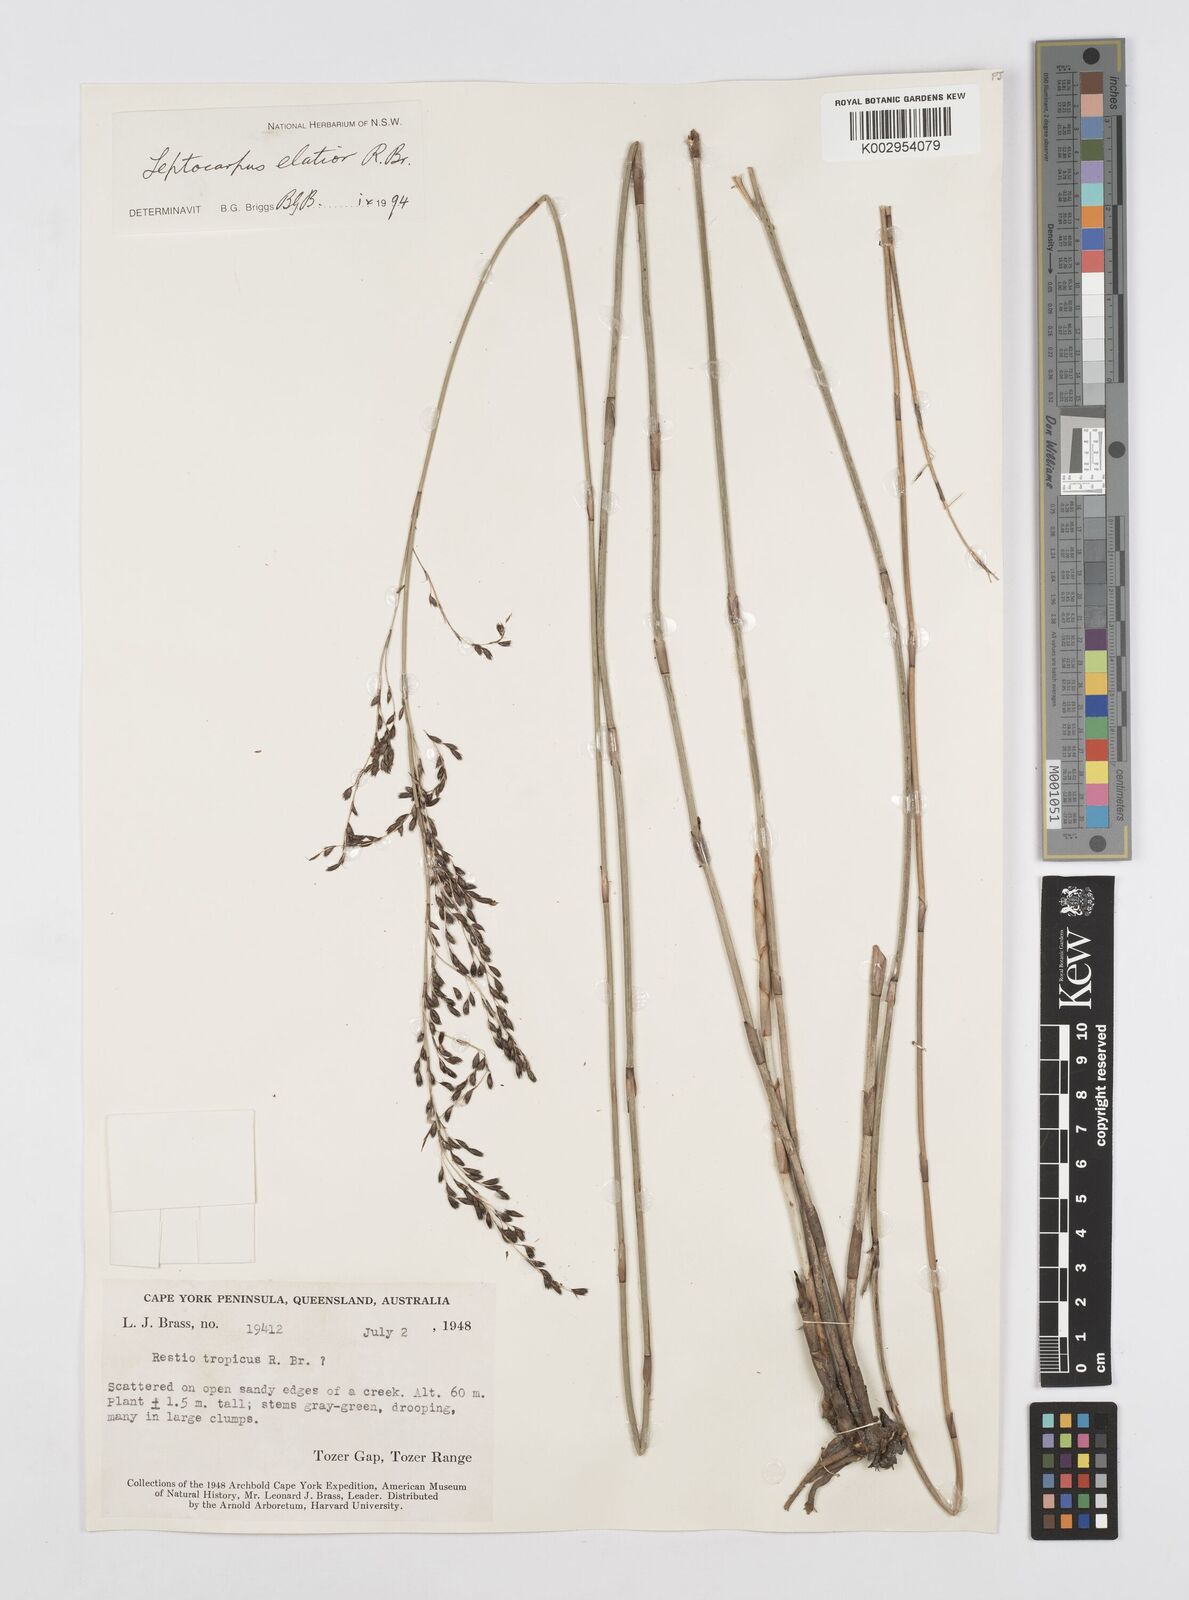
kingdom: Plantae
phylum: Tracheophyta
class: Liliopsida
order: Poales
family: Restionaceae
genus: Dapsilanthus
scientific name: Dapsilanthus elatior
